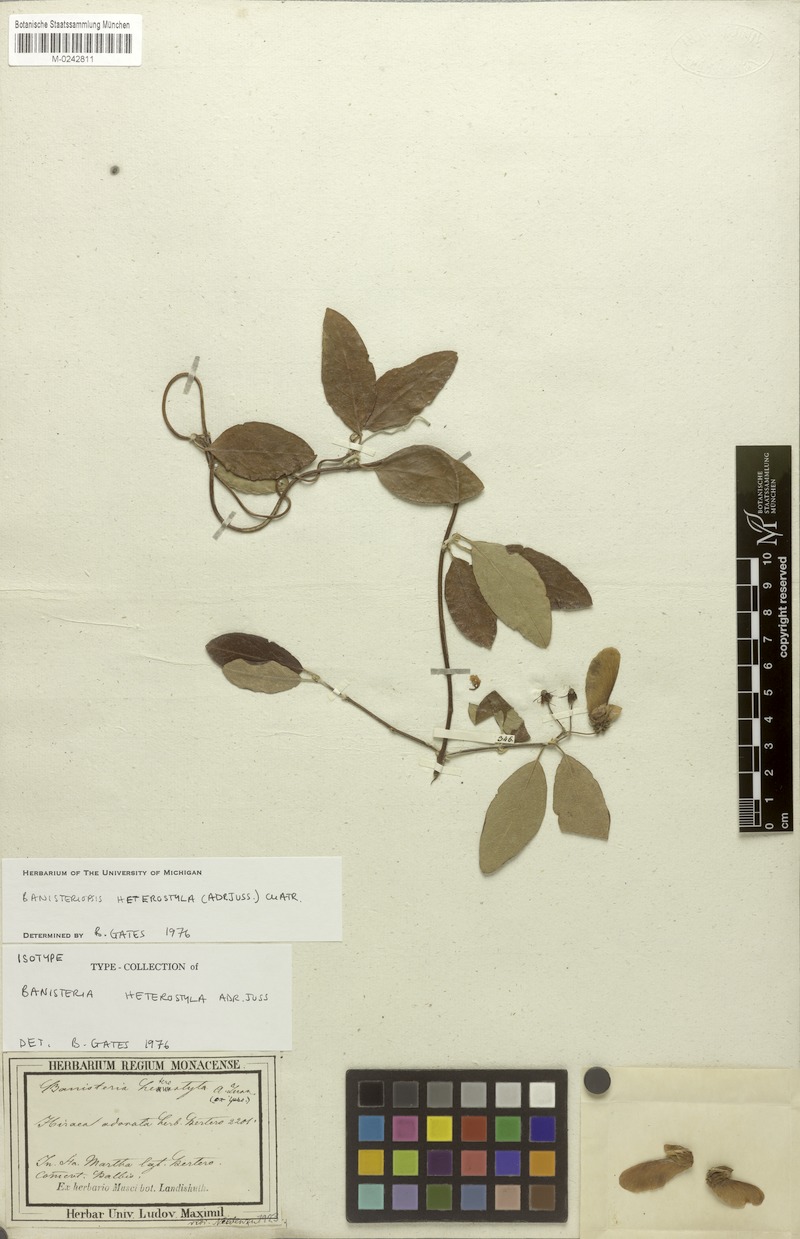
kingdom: Plantae
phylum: Tracheophyta
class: Magnoliopsida
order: Malpighiales
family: Malpighiaceae
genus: Diplopterys
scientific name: Diplopterys heterostyla
